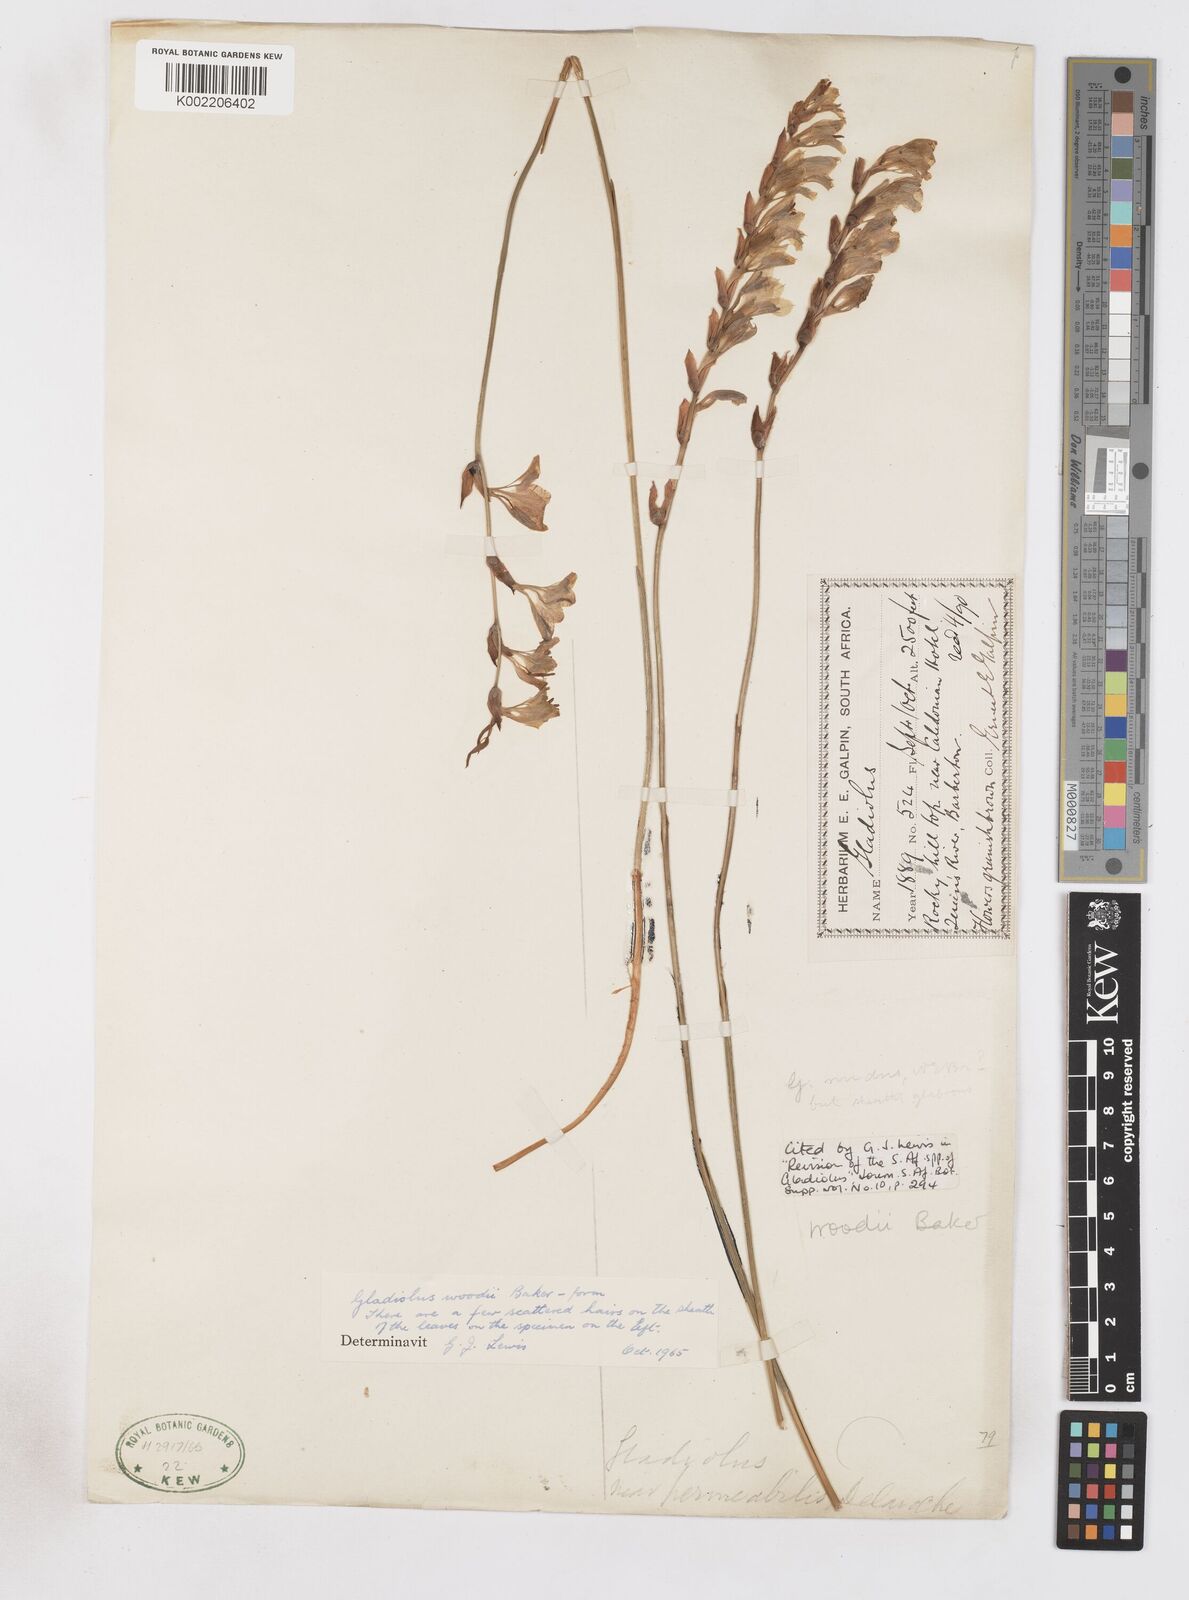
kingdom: Plantae
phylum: Tracheophyta
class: Liliopsida
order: Asparagales
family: Iridaceae
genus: Gladiolus
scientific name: Gladiolus woodii
